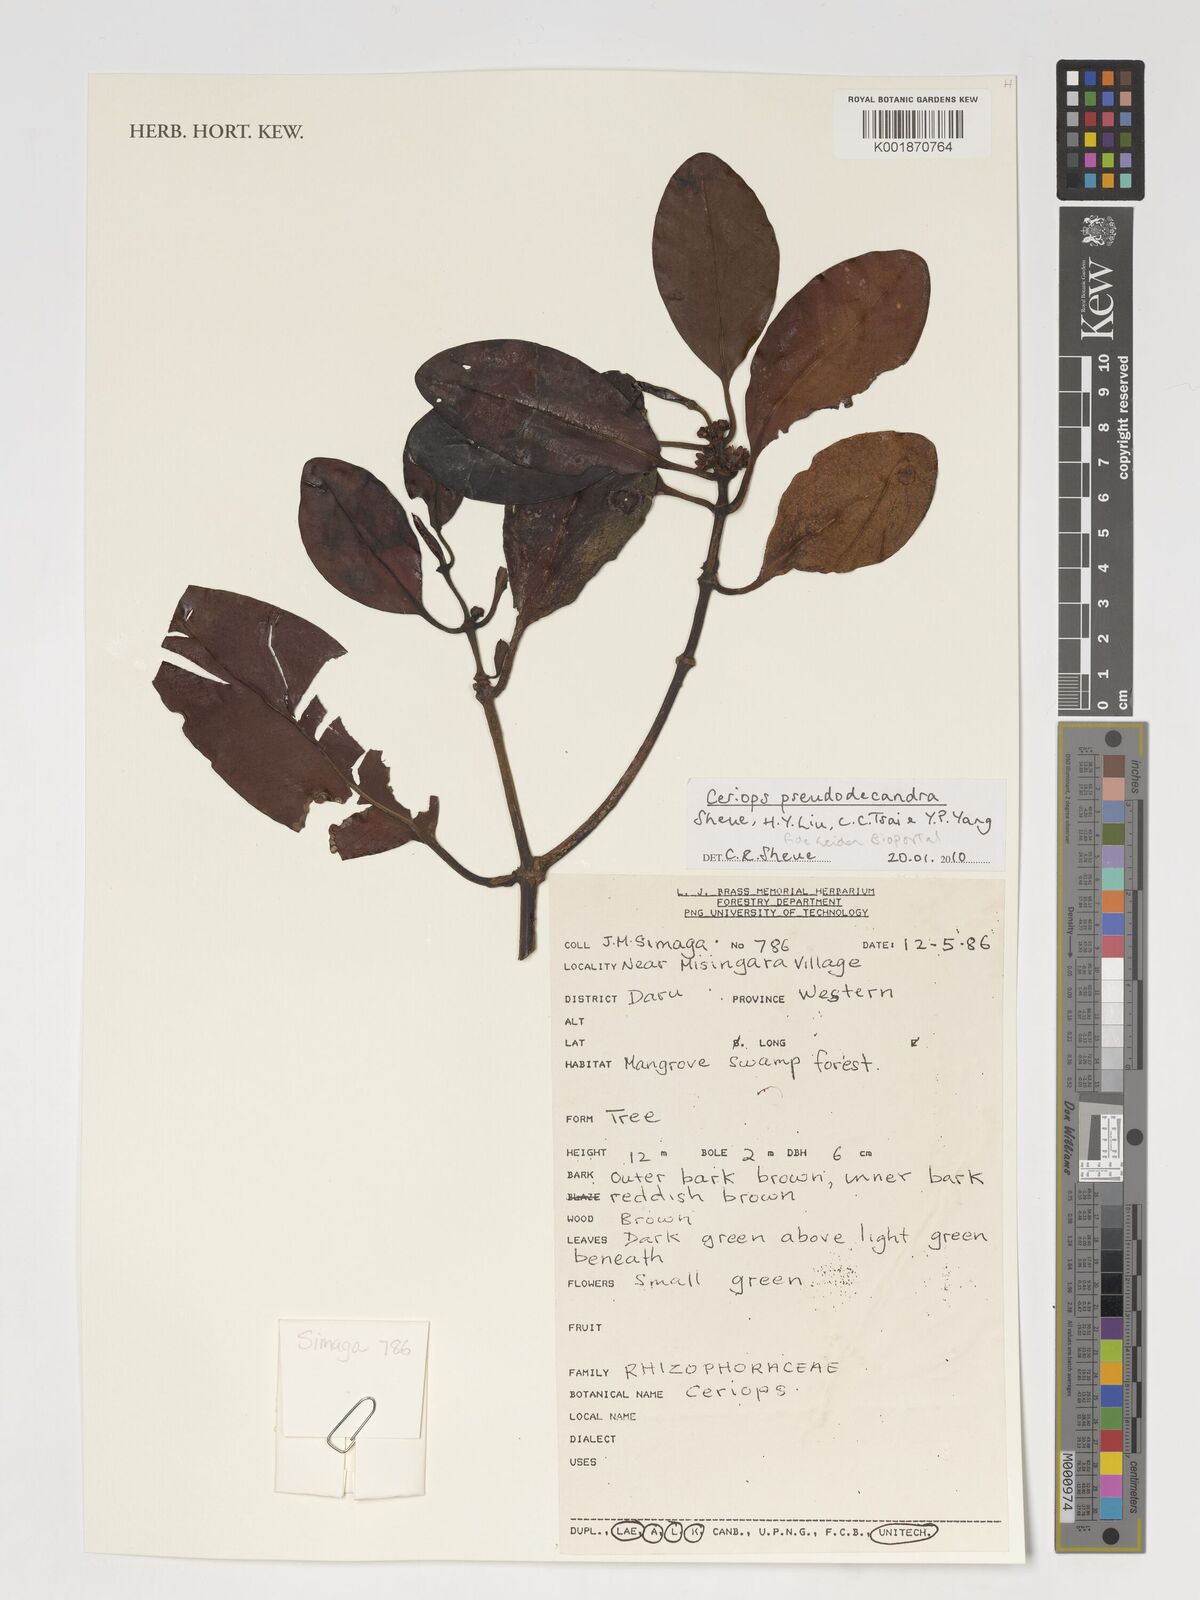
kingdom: Plantae
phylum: Tracheophyta
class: Magnoliopsida
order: Malpighiales
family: Rhizophoraceae
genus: Ceriops
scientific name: Ceriops pseudodecandra
